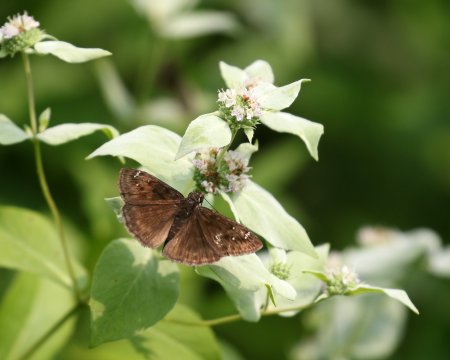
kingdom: Animalia
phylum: Arthropoda
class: Insecta
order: Lepidoptera
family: Hesperiidae
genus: Gesta
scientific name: Gesta
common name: Horace's Duskywing
